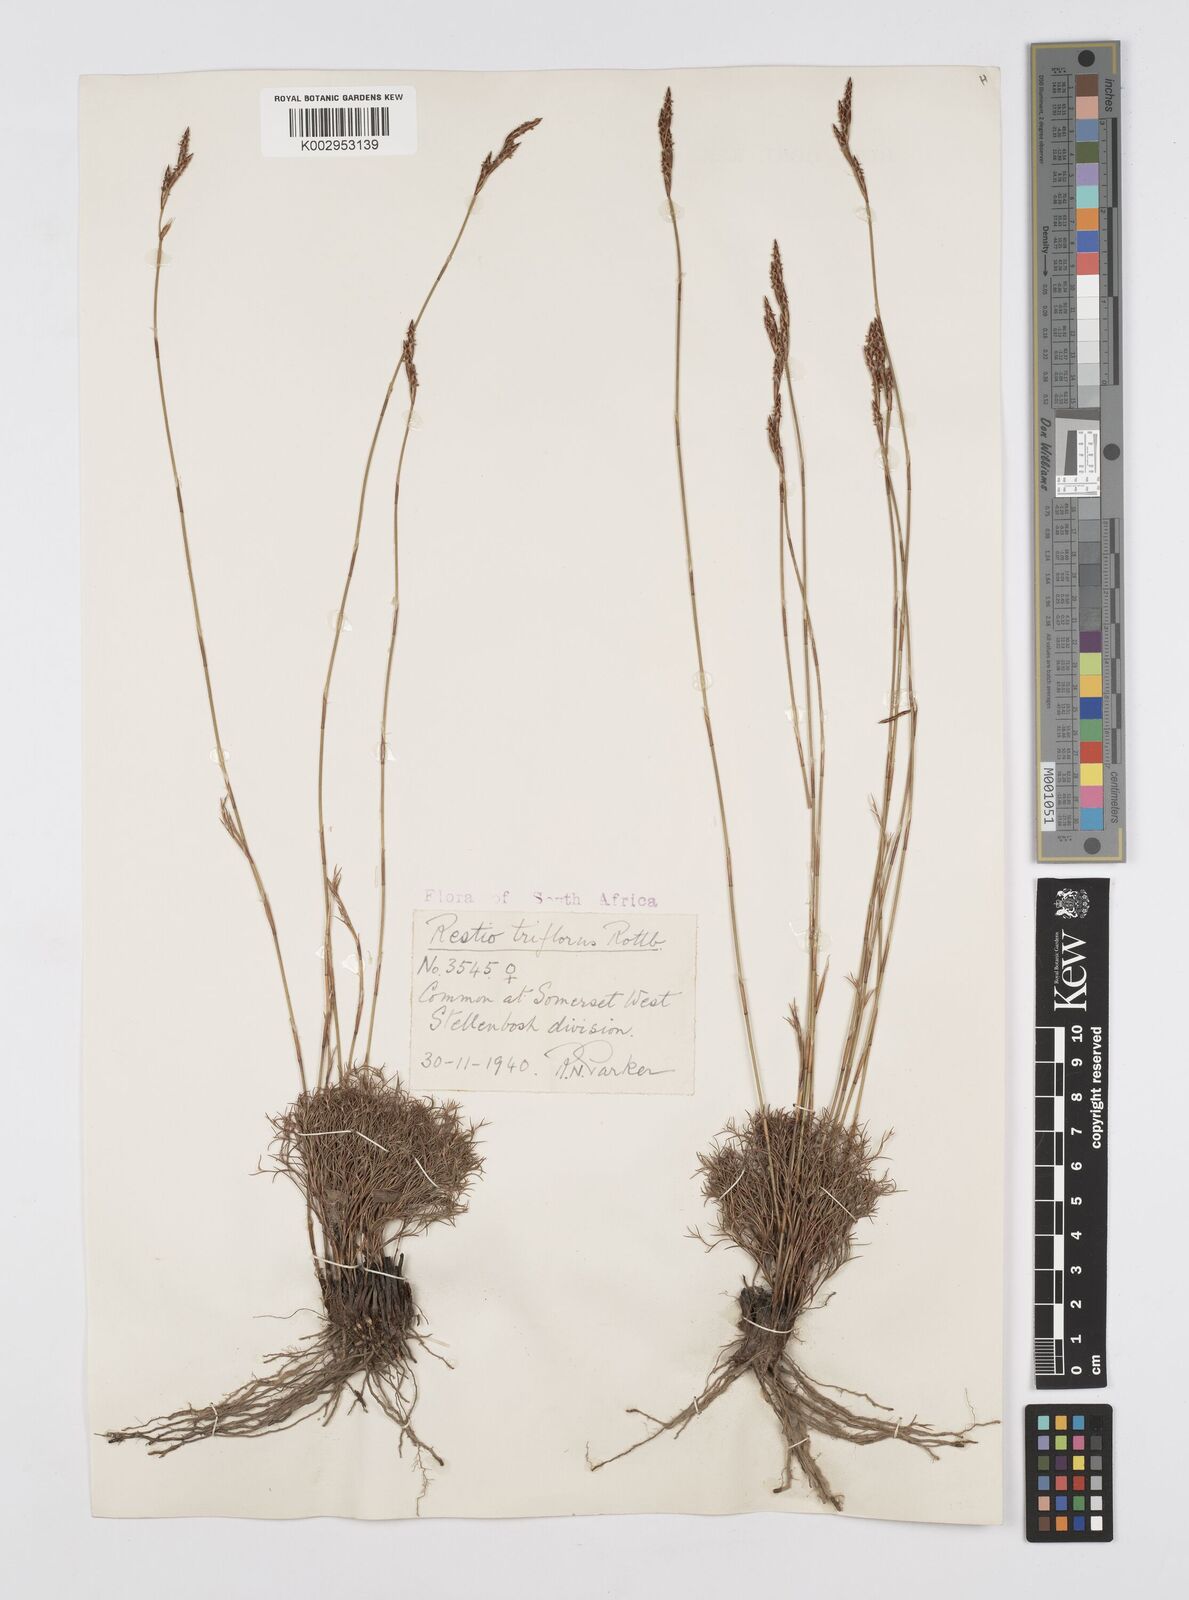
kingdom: Plantae
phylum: Tracheophyta
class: Liliopsida
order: Poales
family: Restionaceae
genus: Restio
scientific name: Restio triflorus
